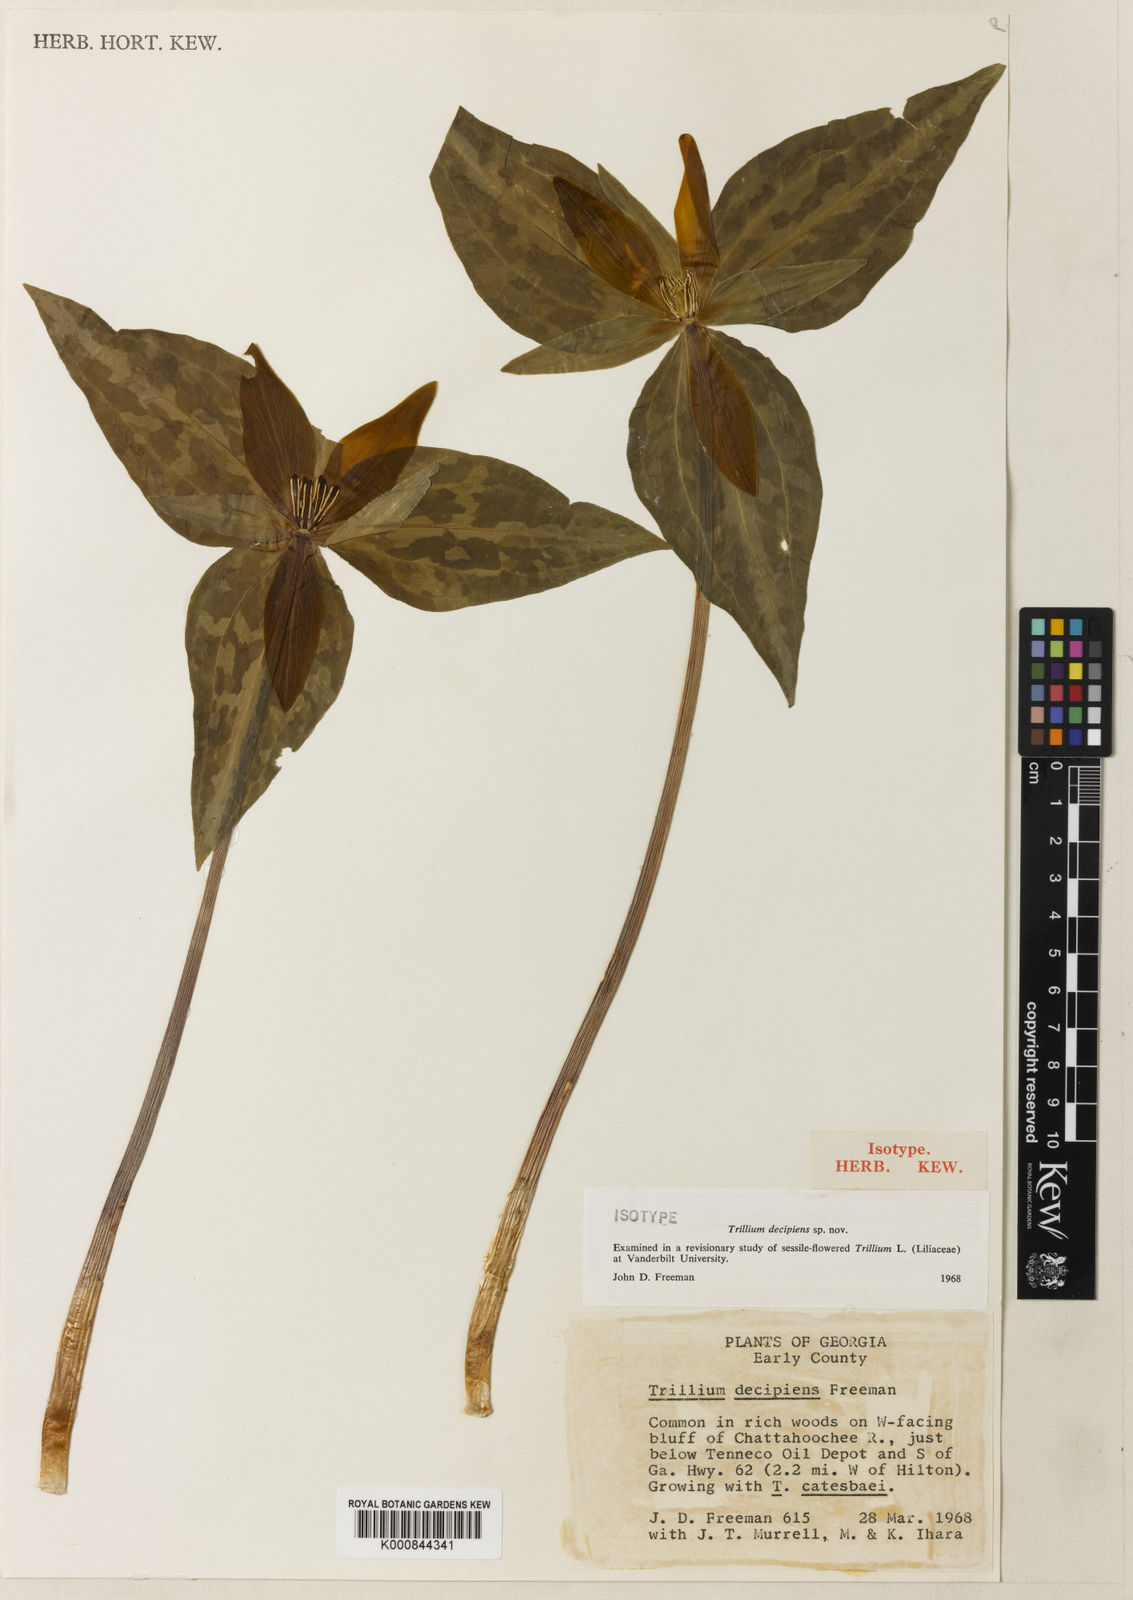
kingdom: Plantae
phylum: Tracheophyta
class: Liliopsida
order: Liliales
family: Melanthiaceae
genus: Trillium
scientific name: Trillium decipiens
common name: Chattahoochee river trillium
